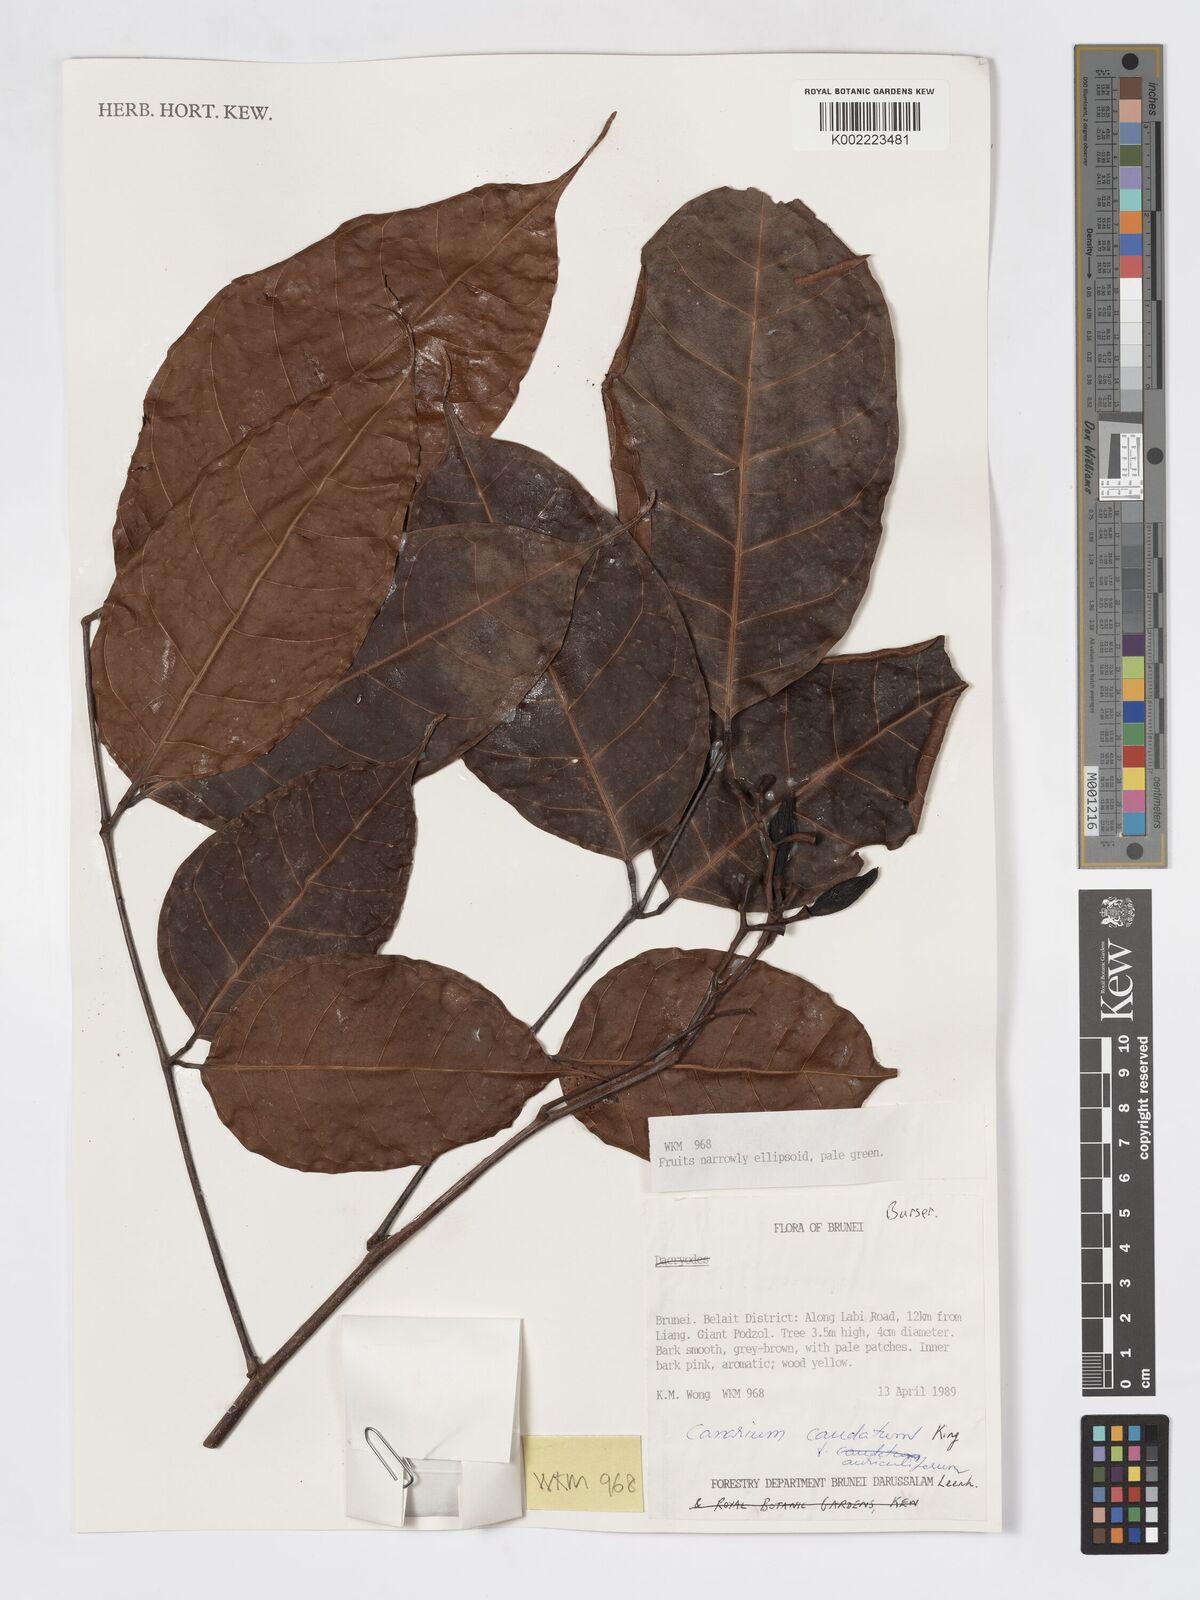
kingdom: Plantae
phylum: Tracheophyta
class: Magnoliopsida
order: Sapindales
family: Burseraceae
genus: Canarium
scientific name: Canarium caudatum
